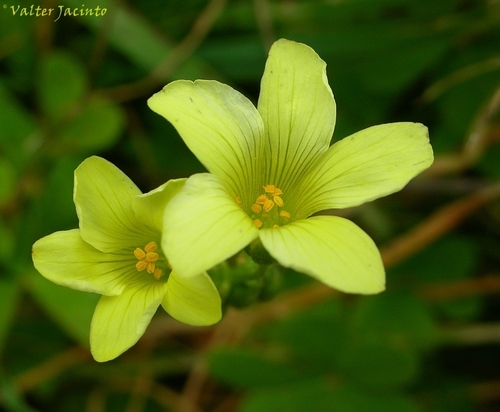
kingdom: Plantae
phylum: Tracheophyta
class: Magnoliopsida
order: Oxalidales
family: Oxalidaceae
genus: Oxalis
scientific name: Oxalis pes-caprae
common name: Bermuda-buttercup
